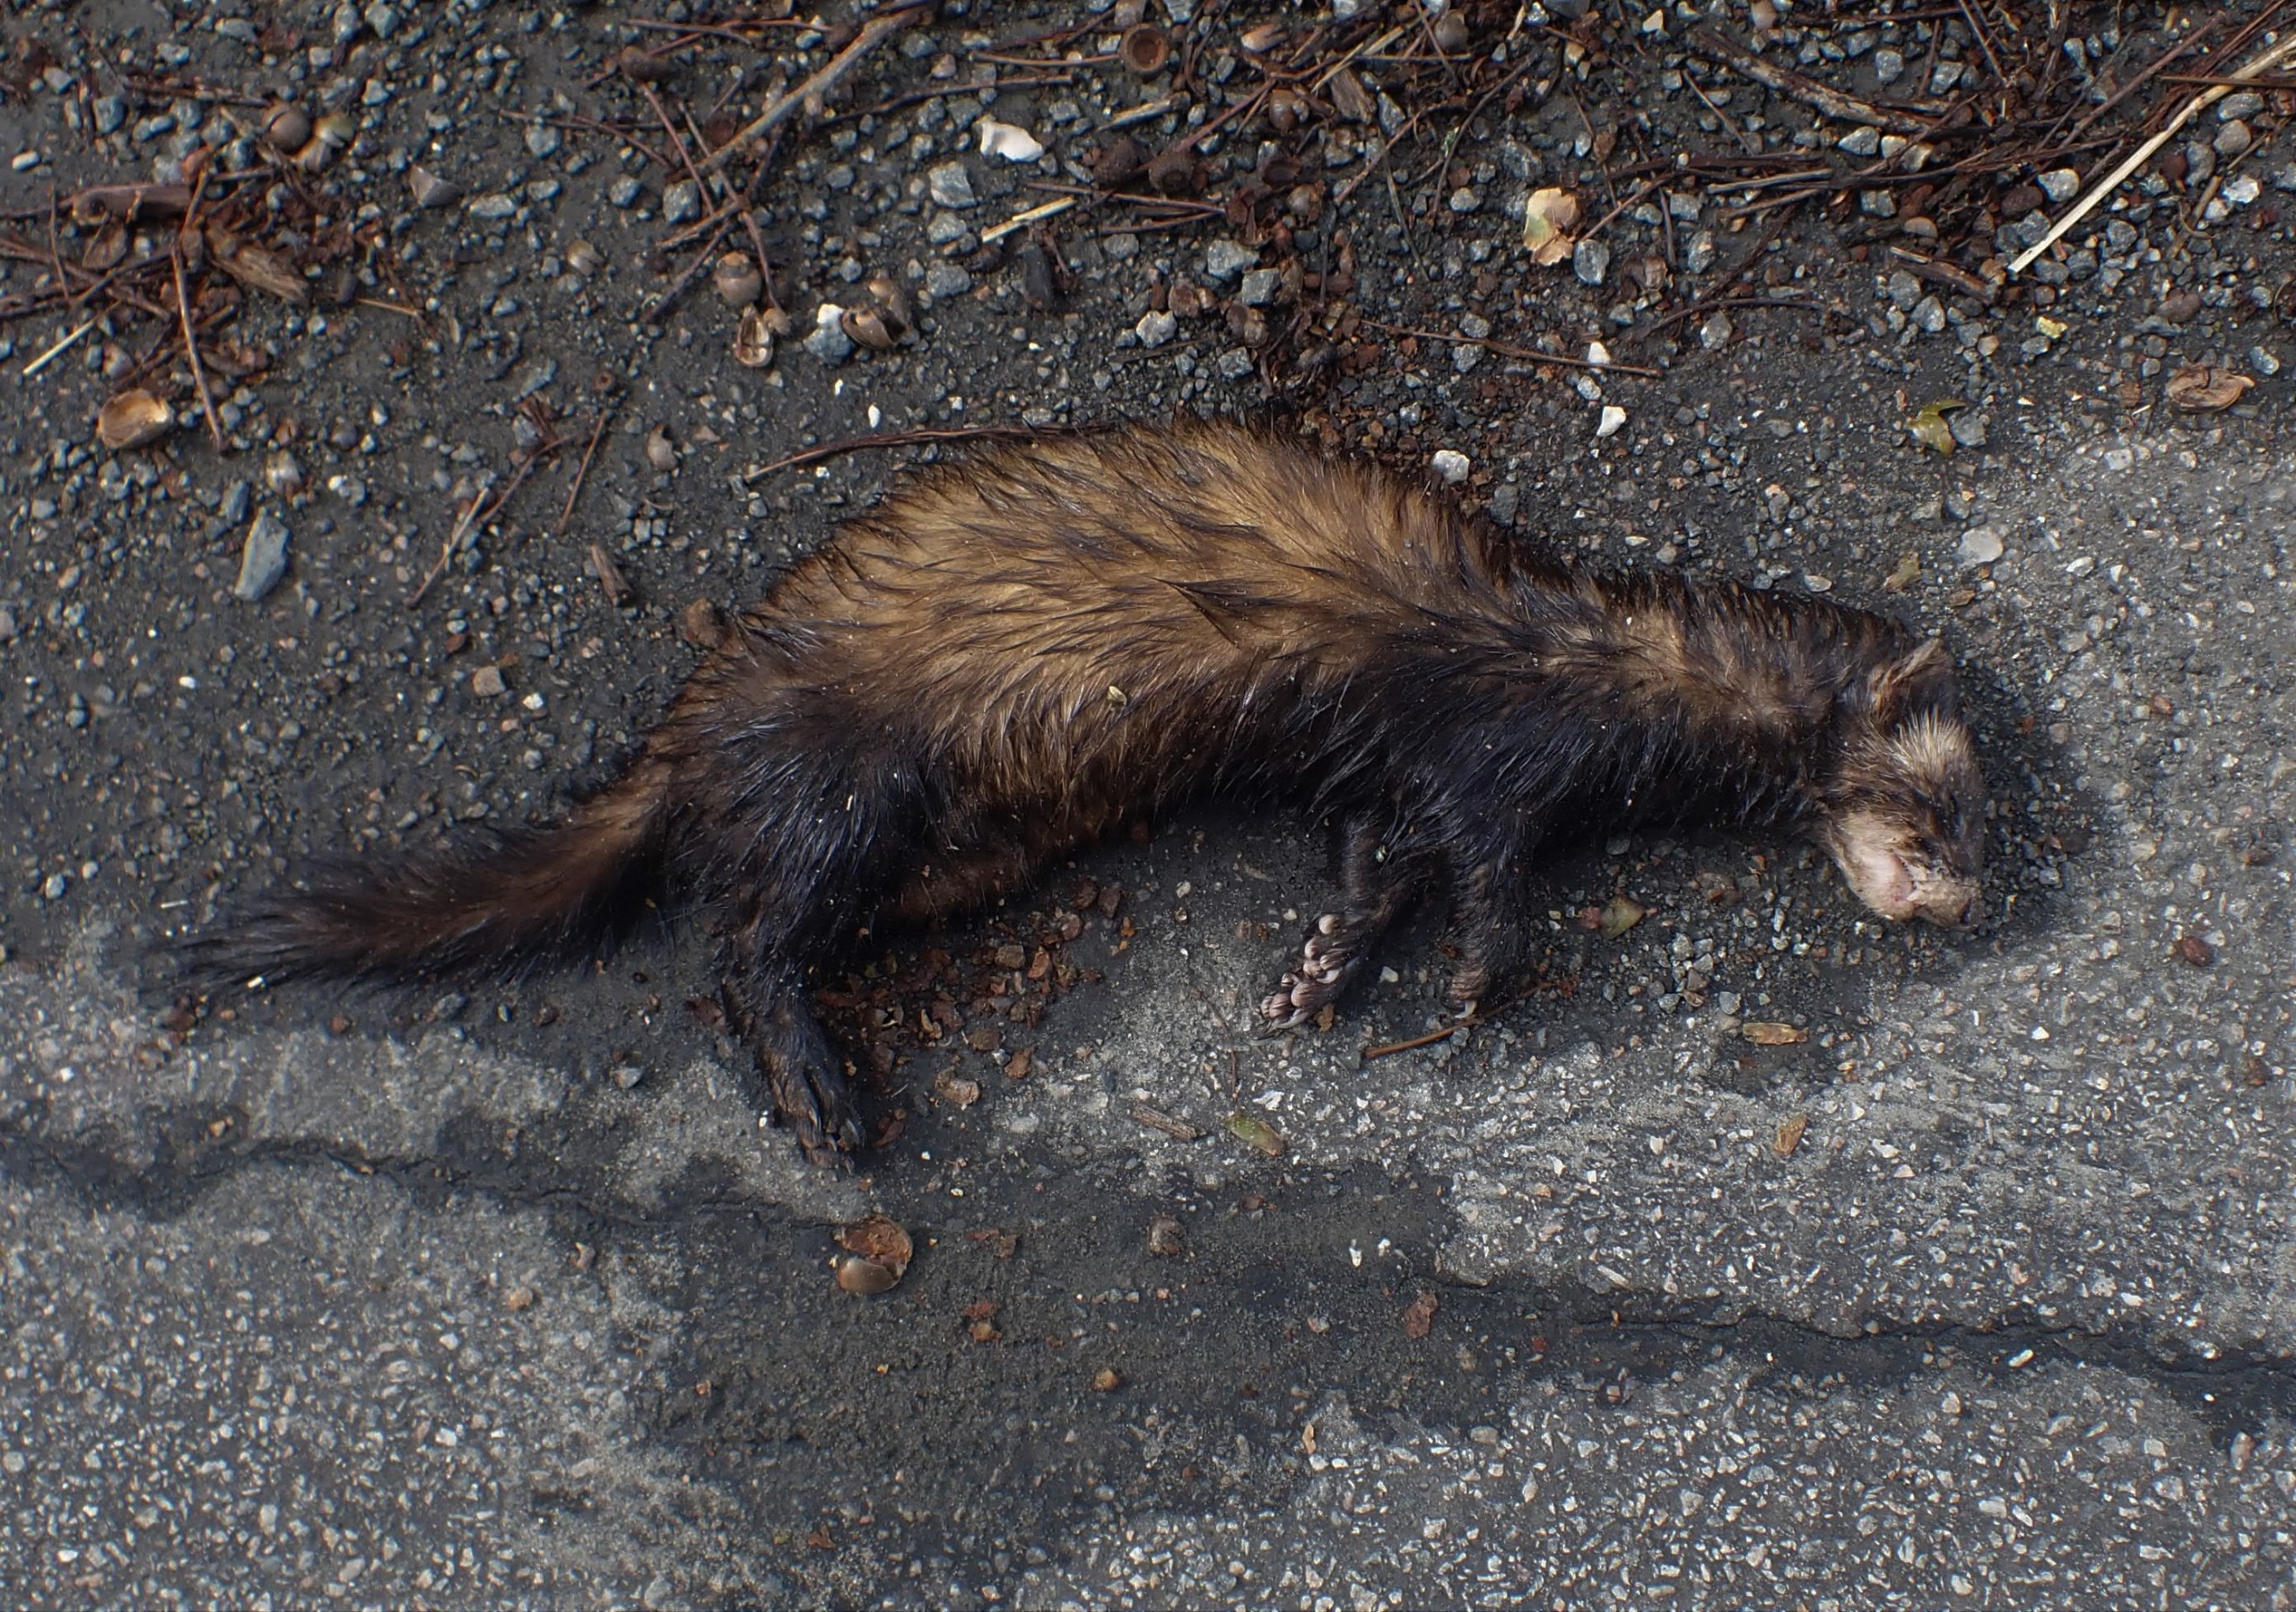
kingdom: Animalia
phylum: Chordata
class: Mammalia
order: Carnivora
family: Mustelidae
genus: Mustela
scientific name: Mustela putorius
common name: Ilder
